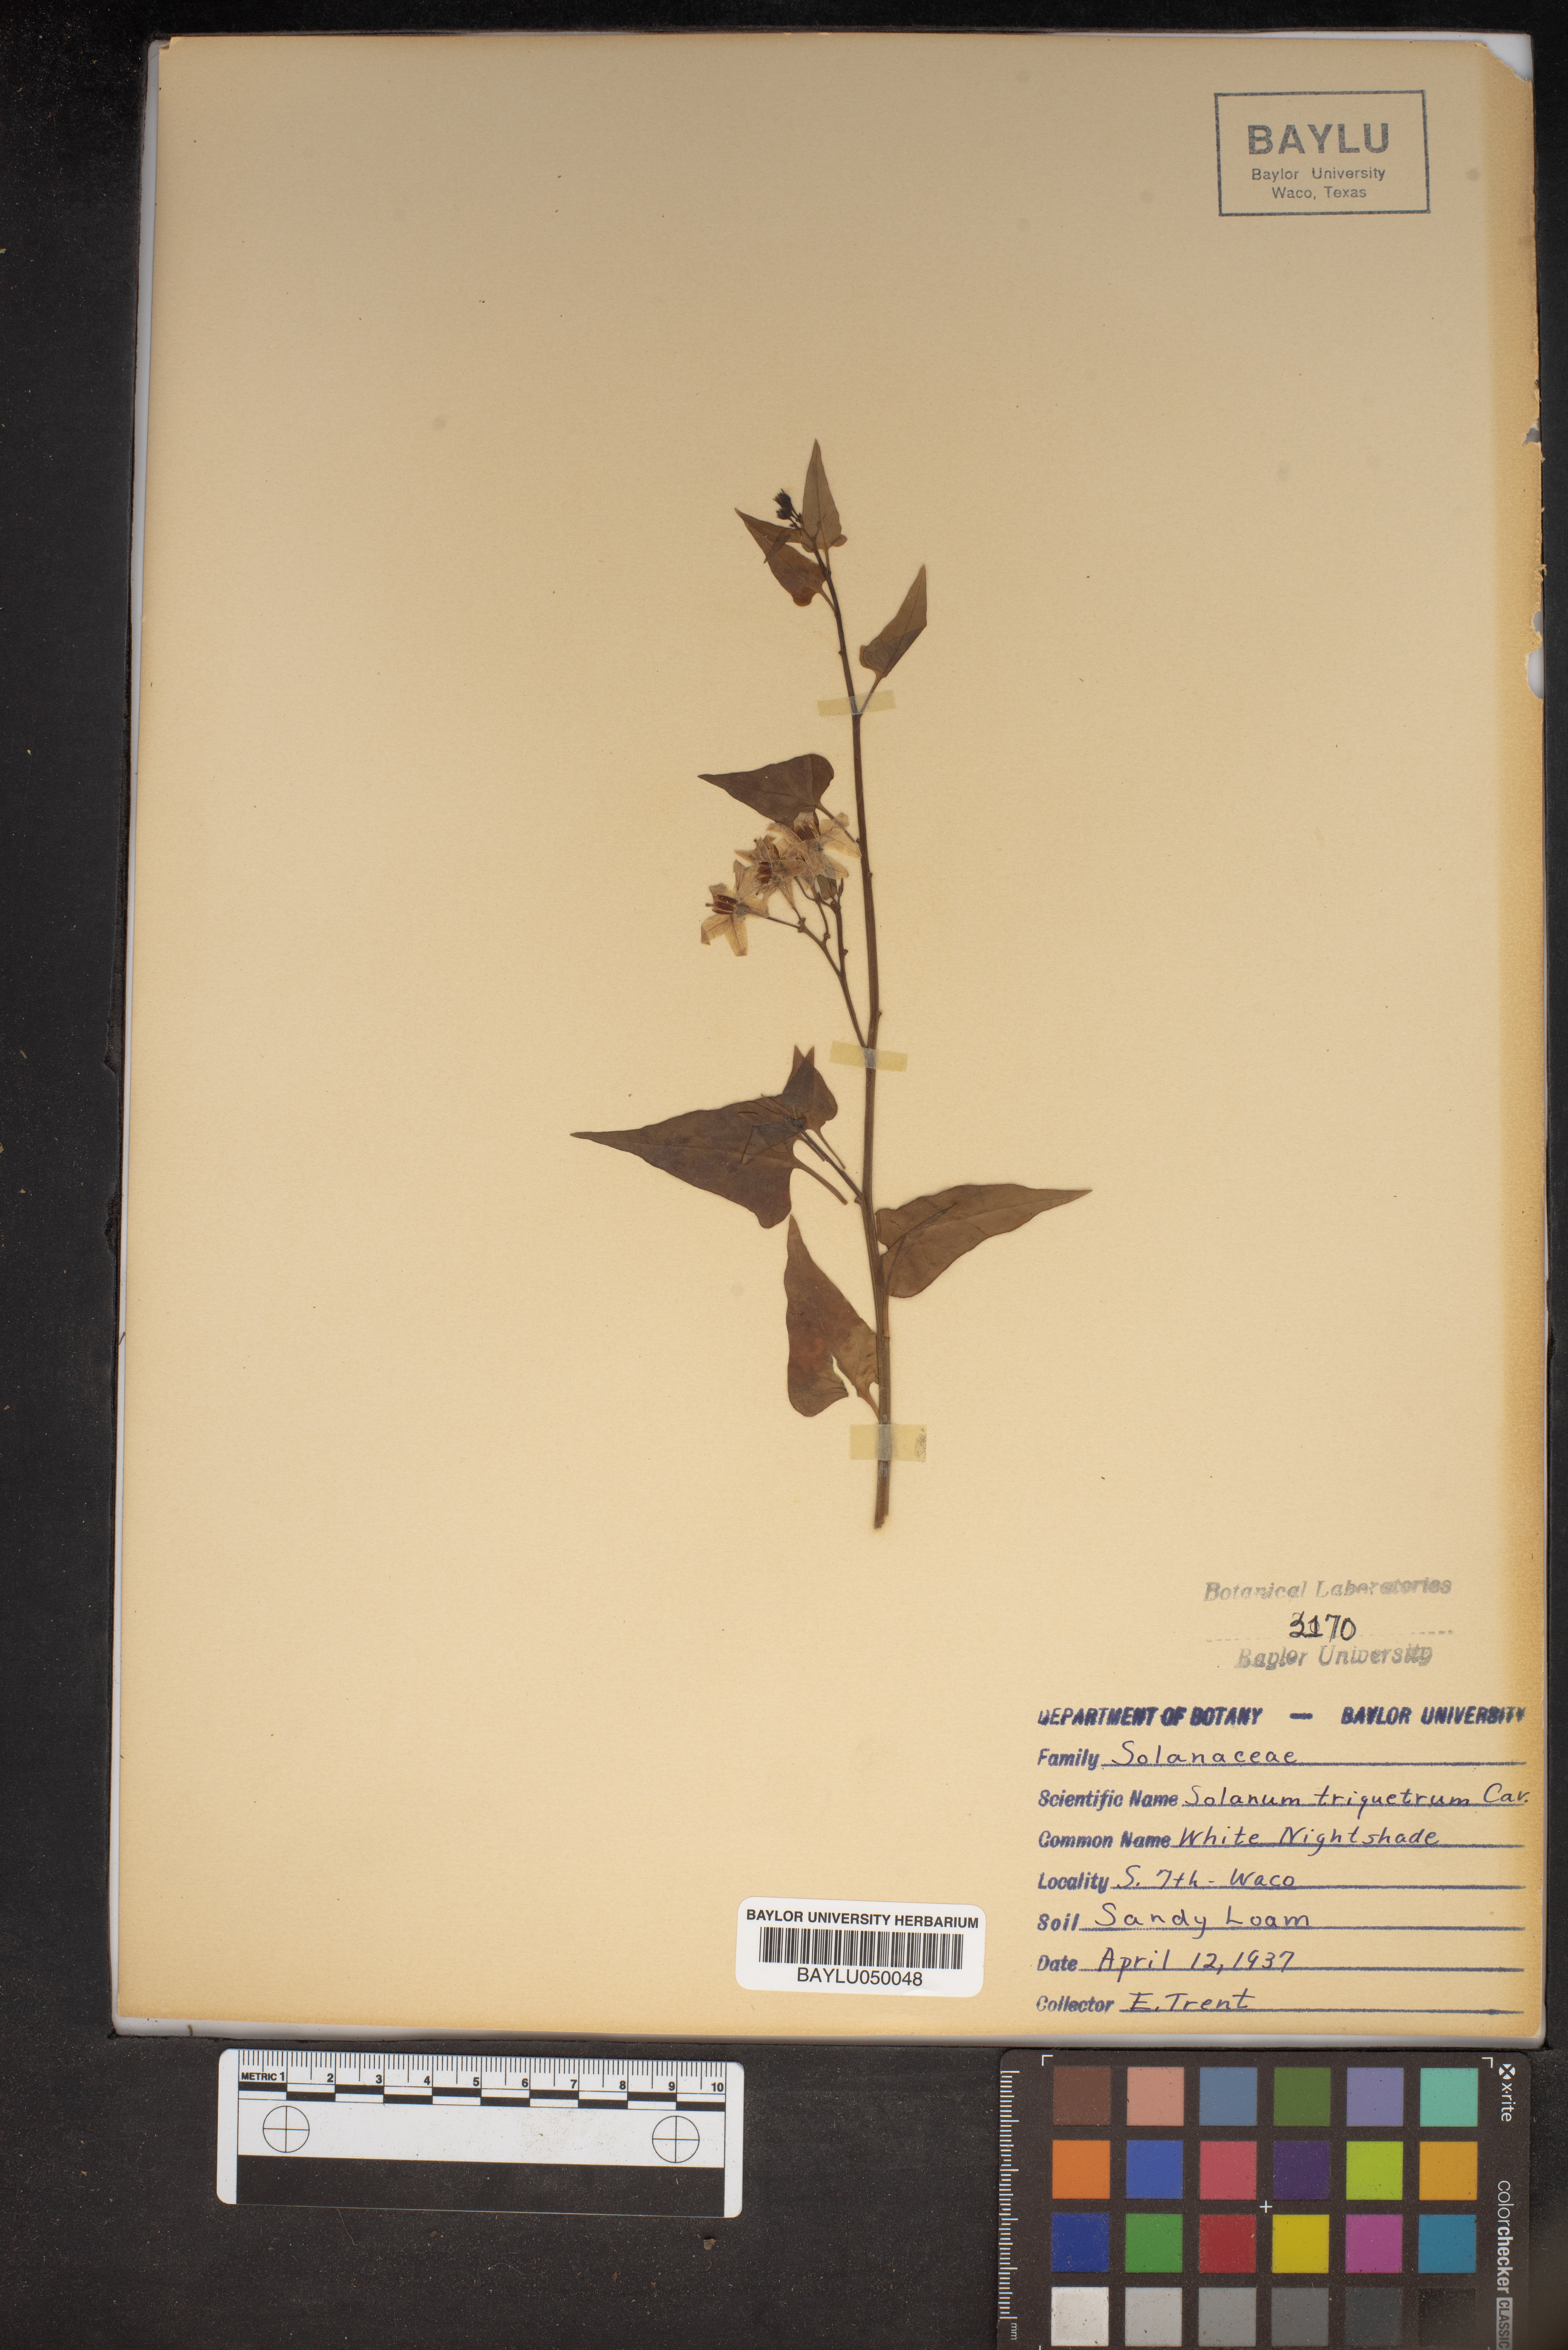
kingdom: Plantae
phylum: Tracheophyta
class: Magnoliopsida
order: Solanales
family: Solanaceae
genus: Solanum
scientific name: Solanum triquetrum
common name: Texas nightshade
